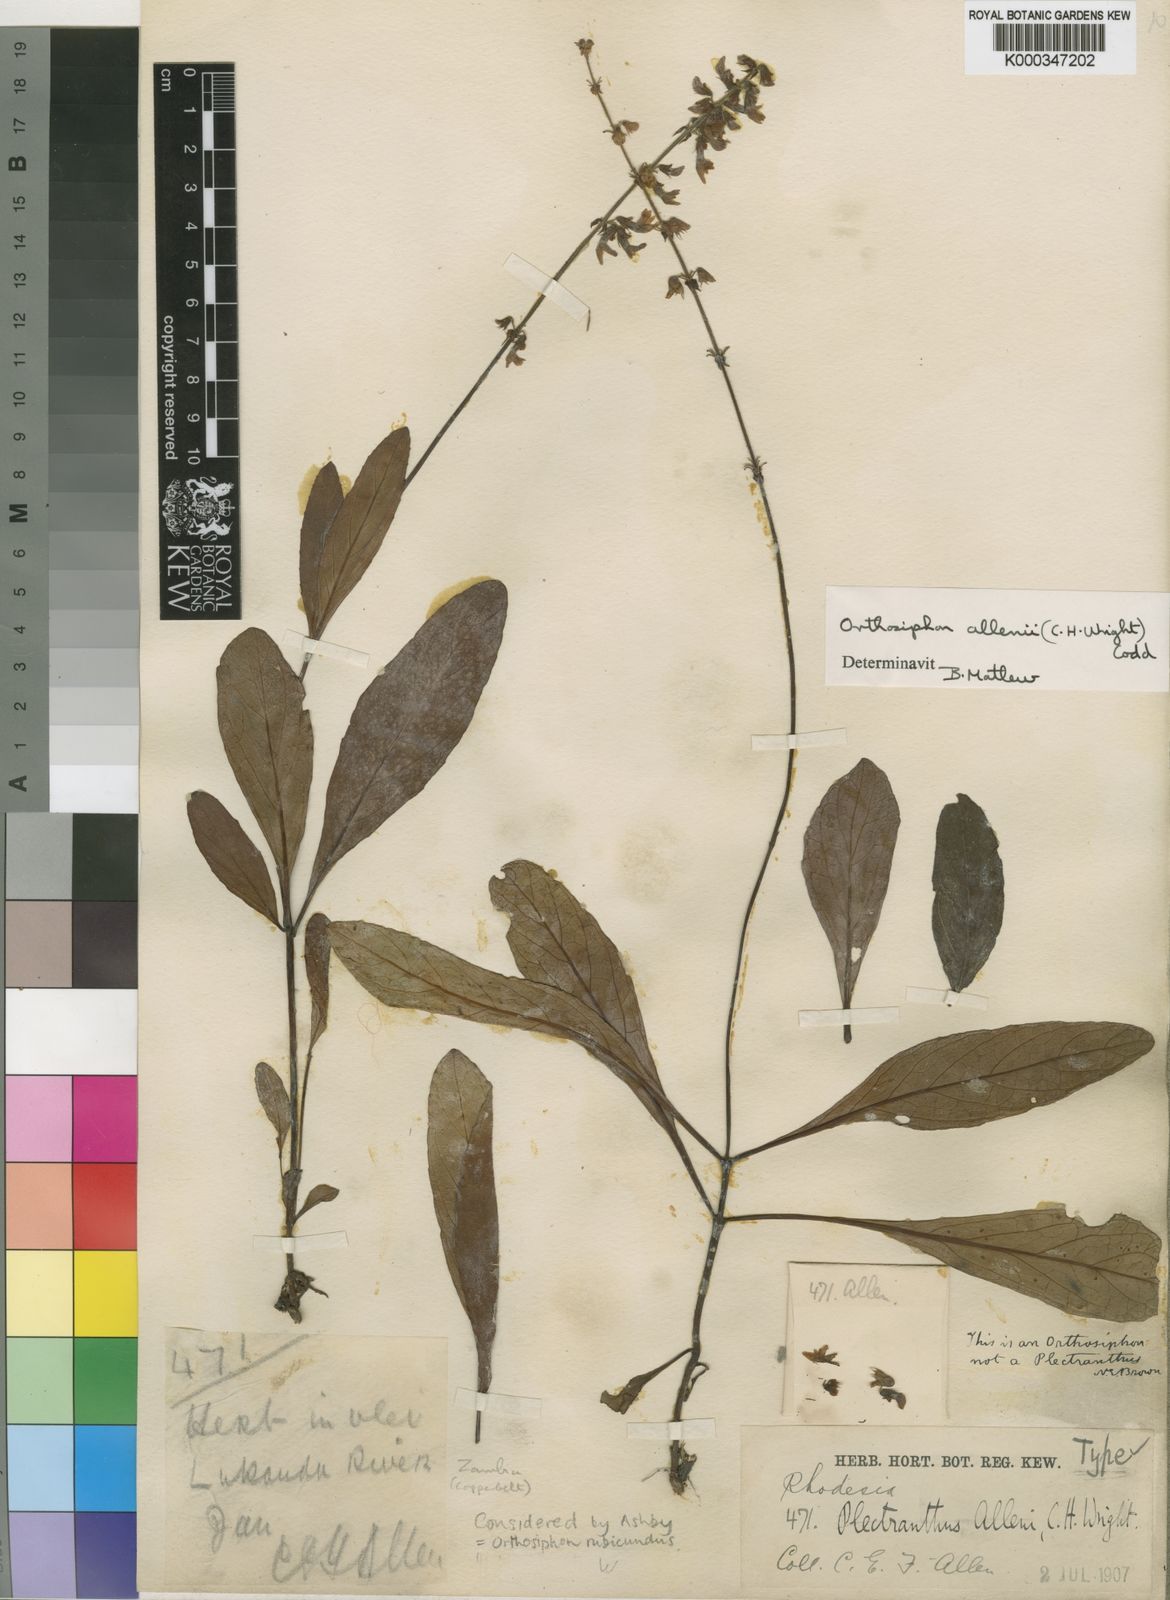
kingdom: Plantae
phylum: Tracheophyta
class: Magnoliopsida
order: Lamiales
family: Lamiaceae
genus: Orthosiphon
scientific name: Orthosiphon allenii
